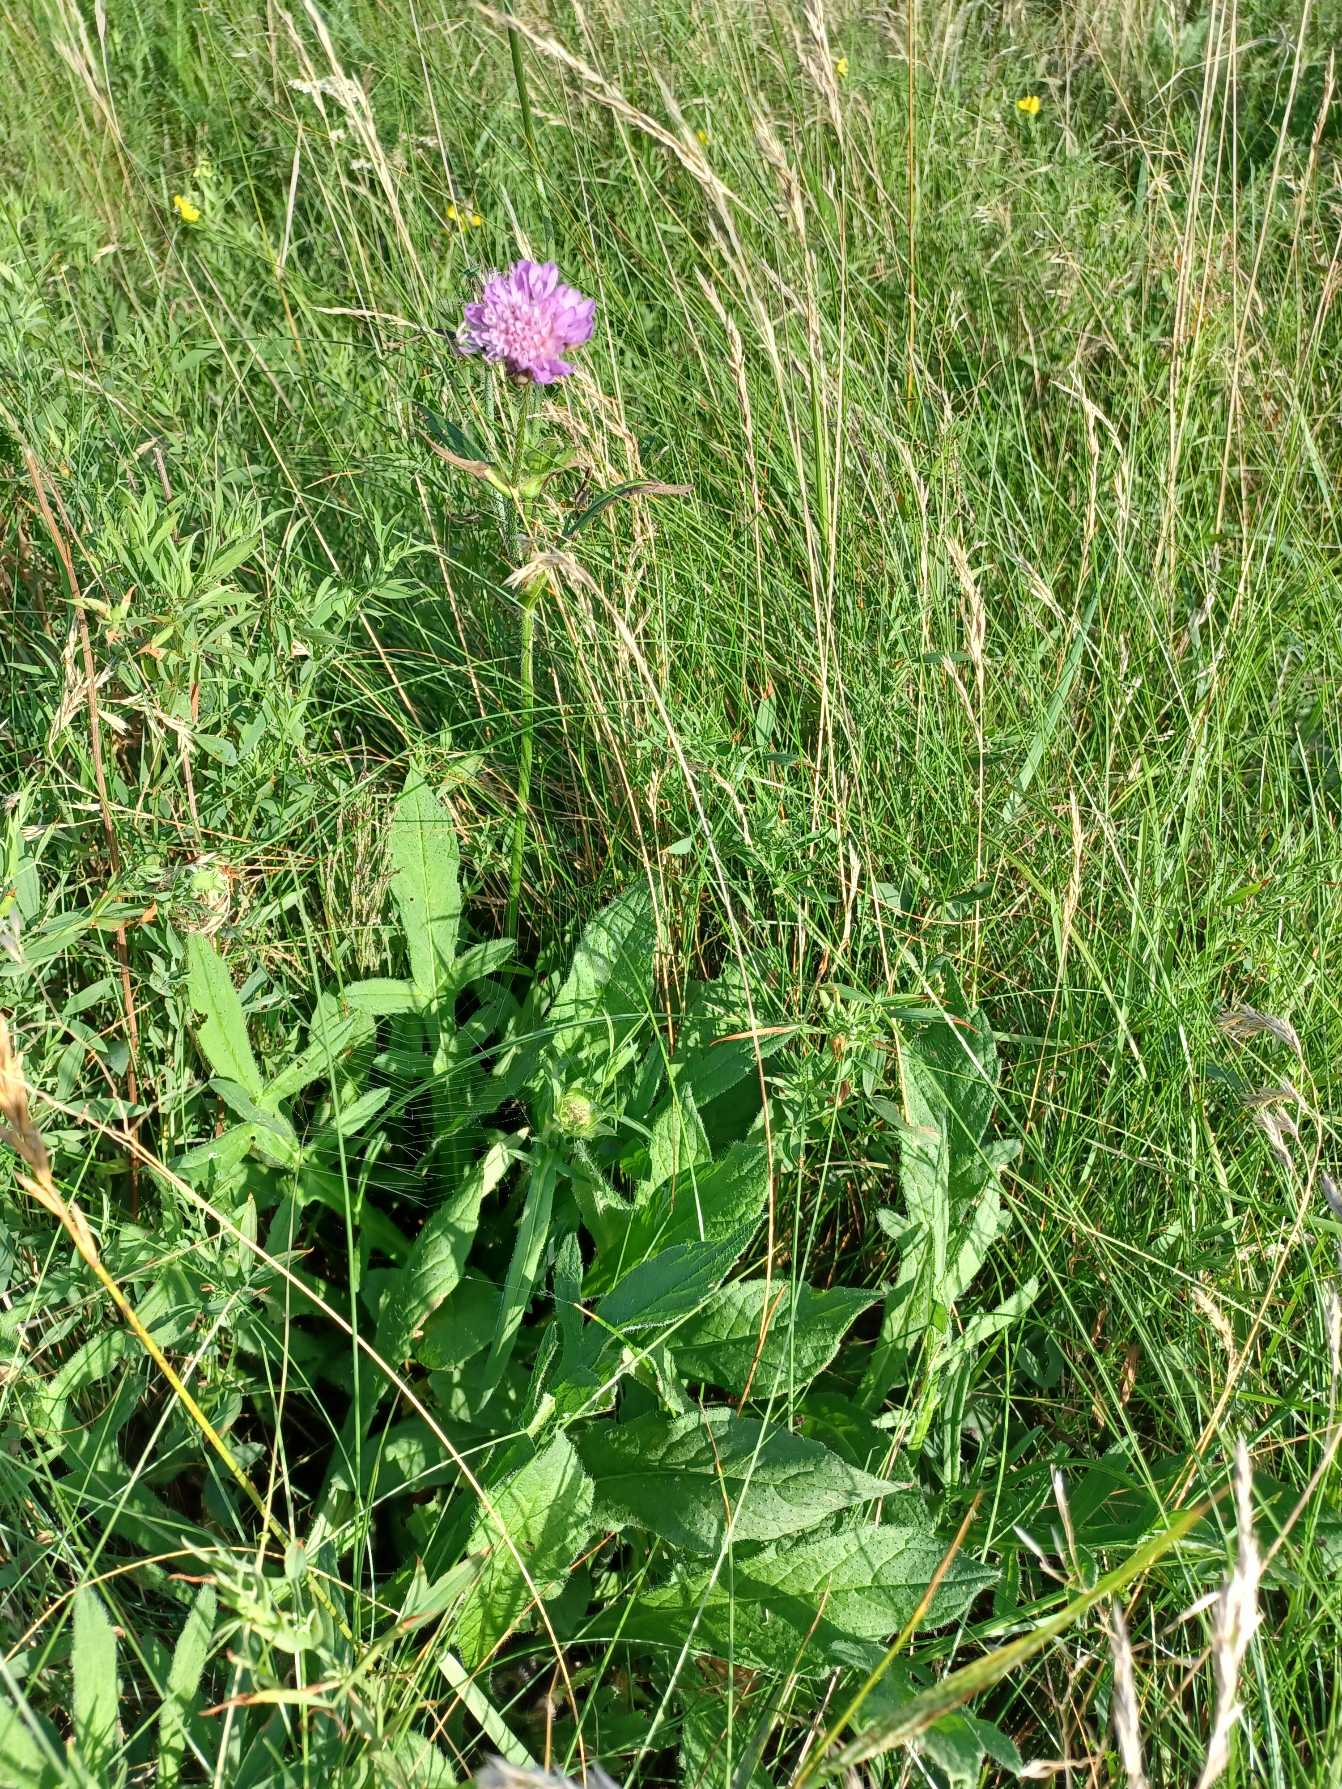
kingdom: Plantae
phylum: Tracheophyta
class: Magnoliopsida
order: Dipsacales
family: Caprifoliaceae
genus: Knautia
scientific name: Knautia arvensis
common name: Blåhat
